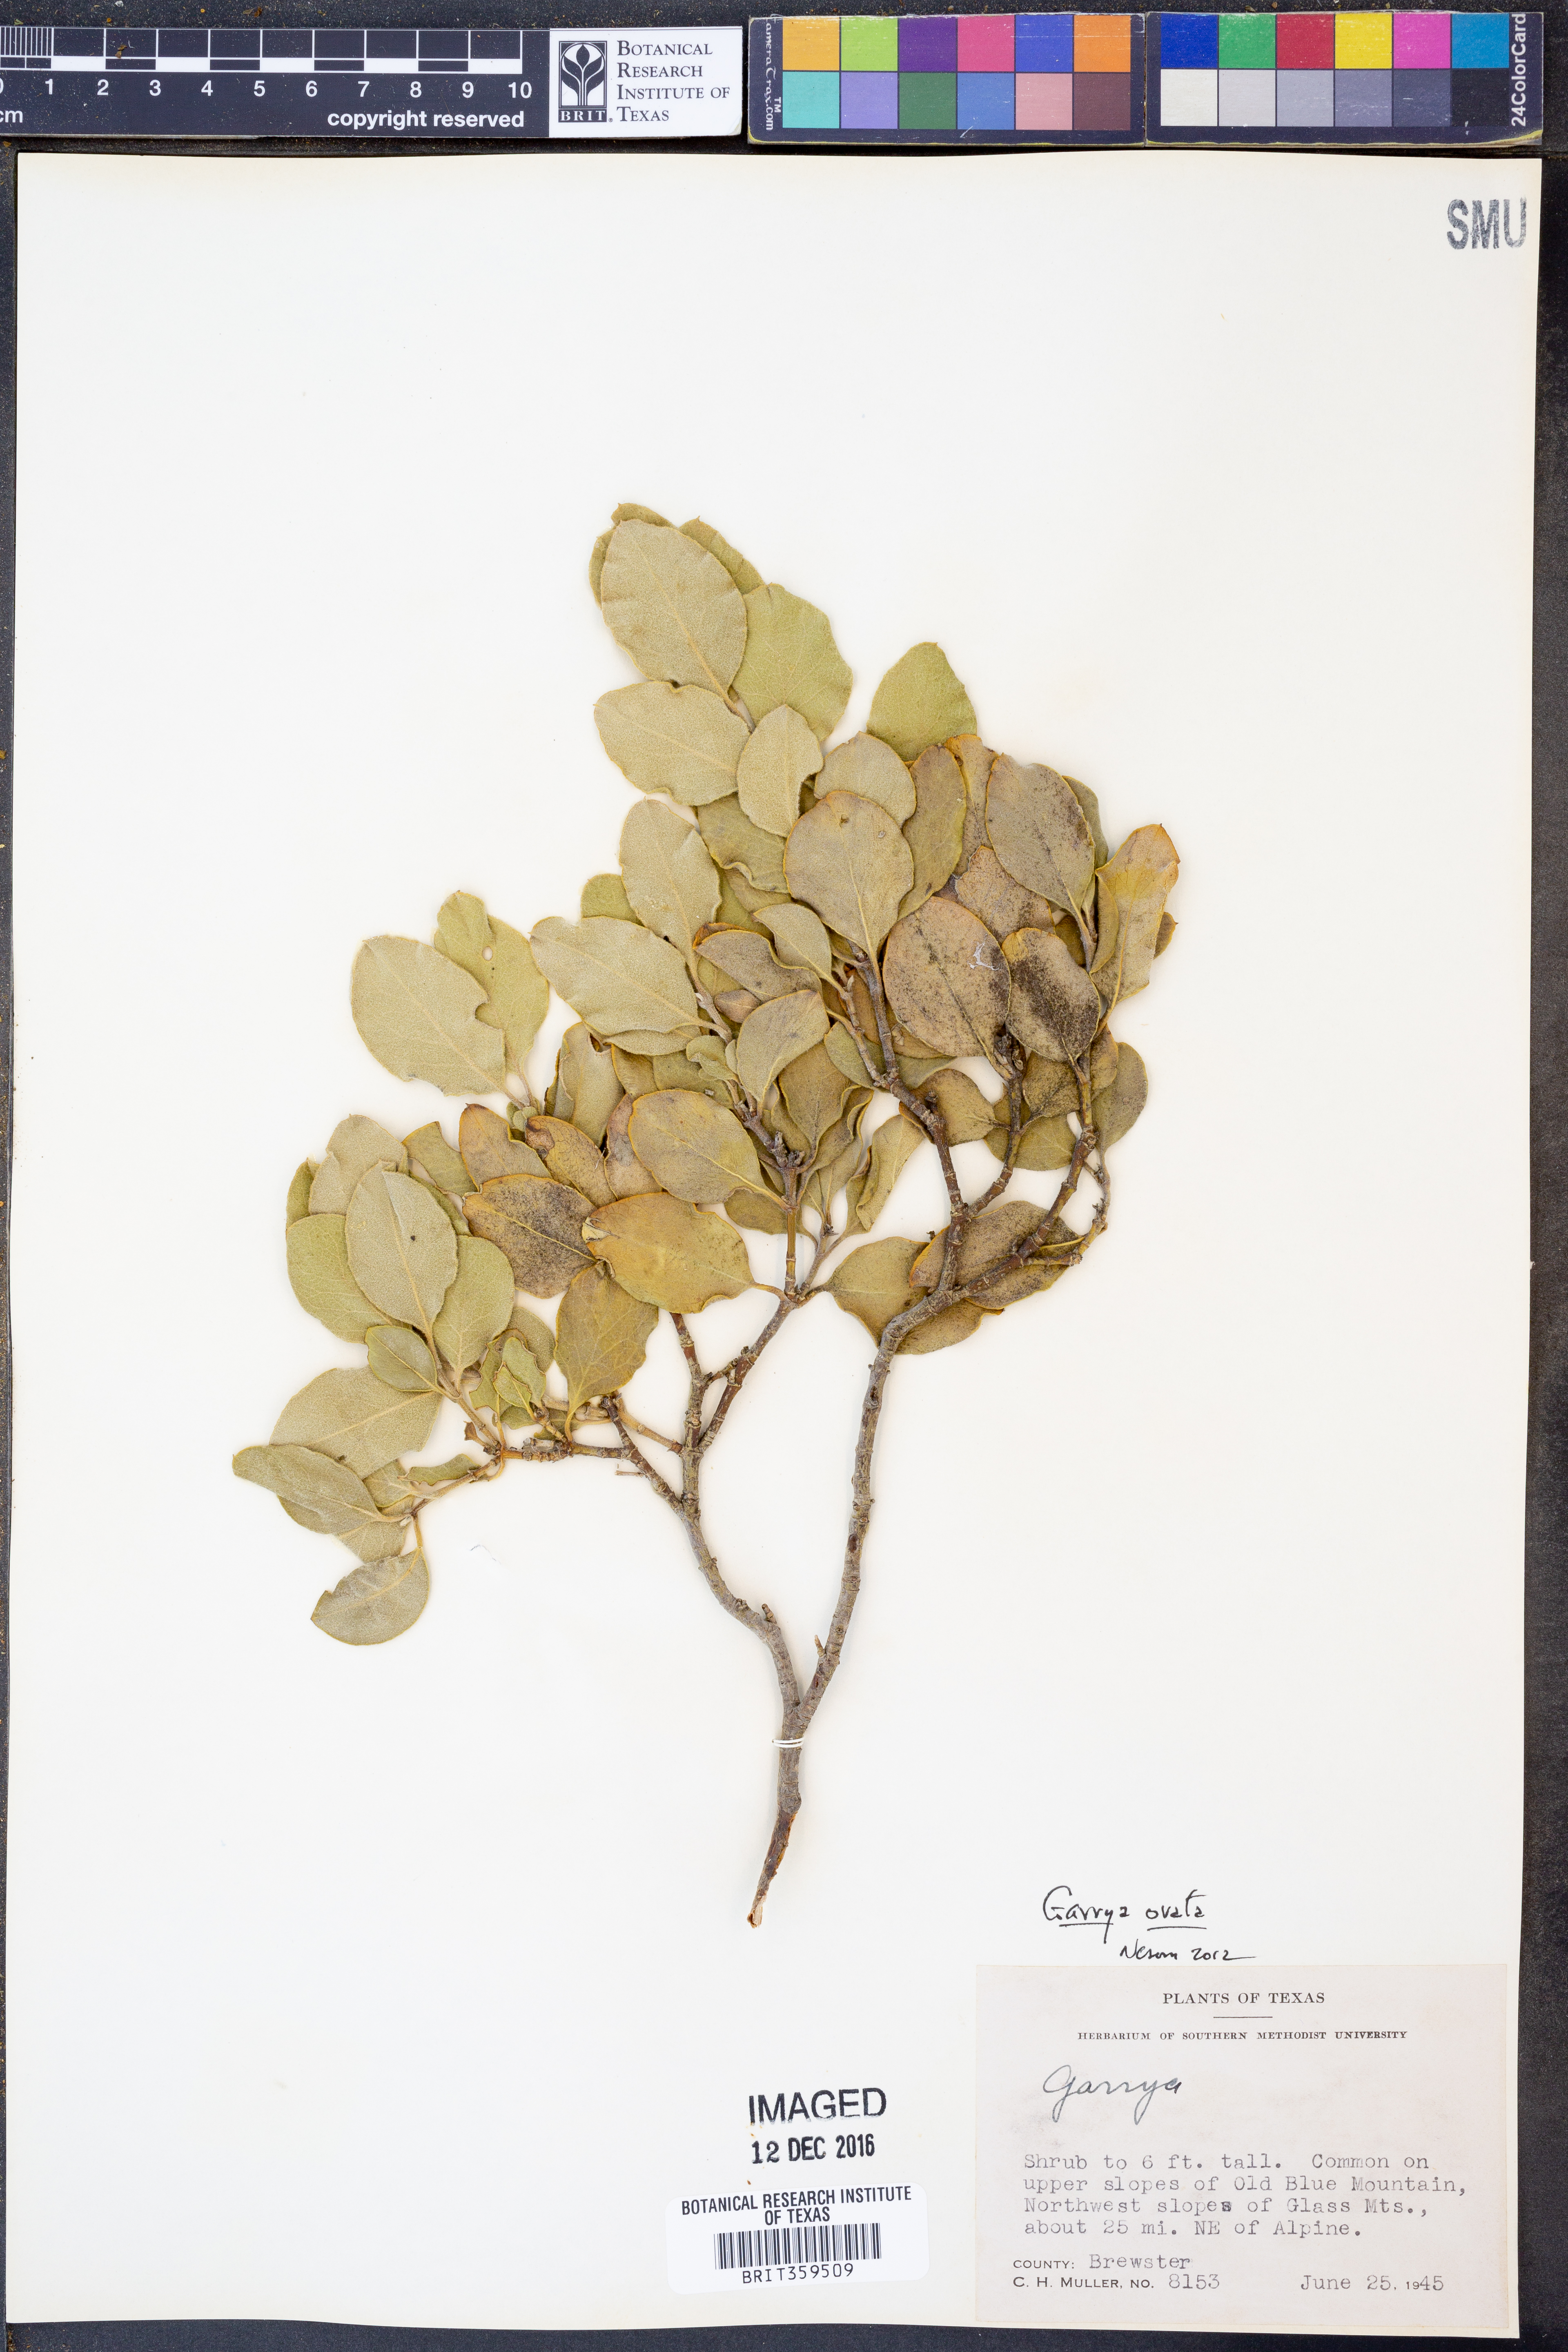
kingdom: Plantae
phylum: Tracheophyta
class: Magnoliopsida
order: Garryales
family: Garryaceae
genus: Garrya
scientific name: Garrya ovata
